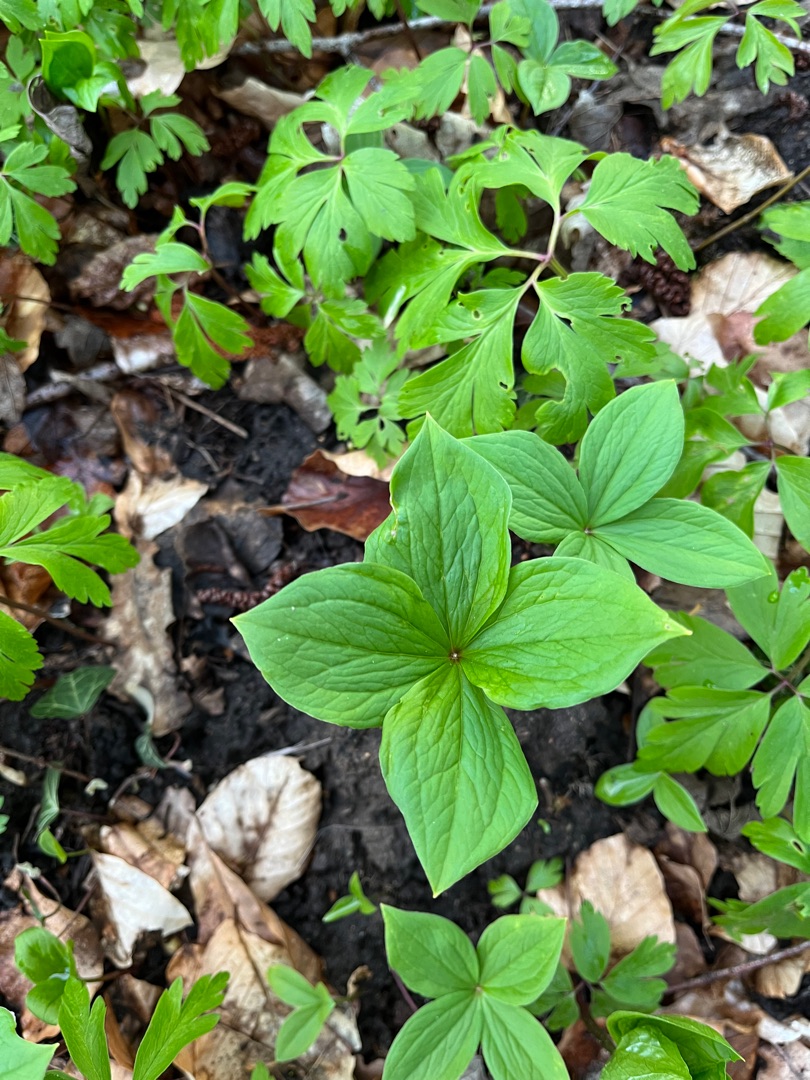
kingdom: Plantae
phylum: Tracheophyta
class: Liliopsida
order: Liliales
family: Melanthiaceae
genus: Paris
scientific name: Paris quadrifolia
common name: Firblad
